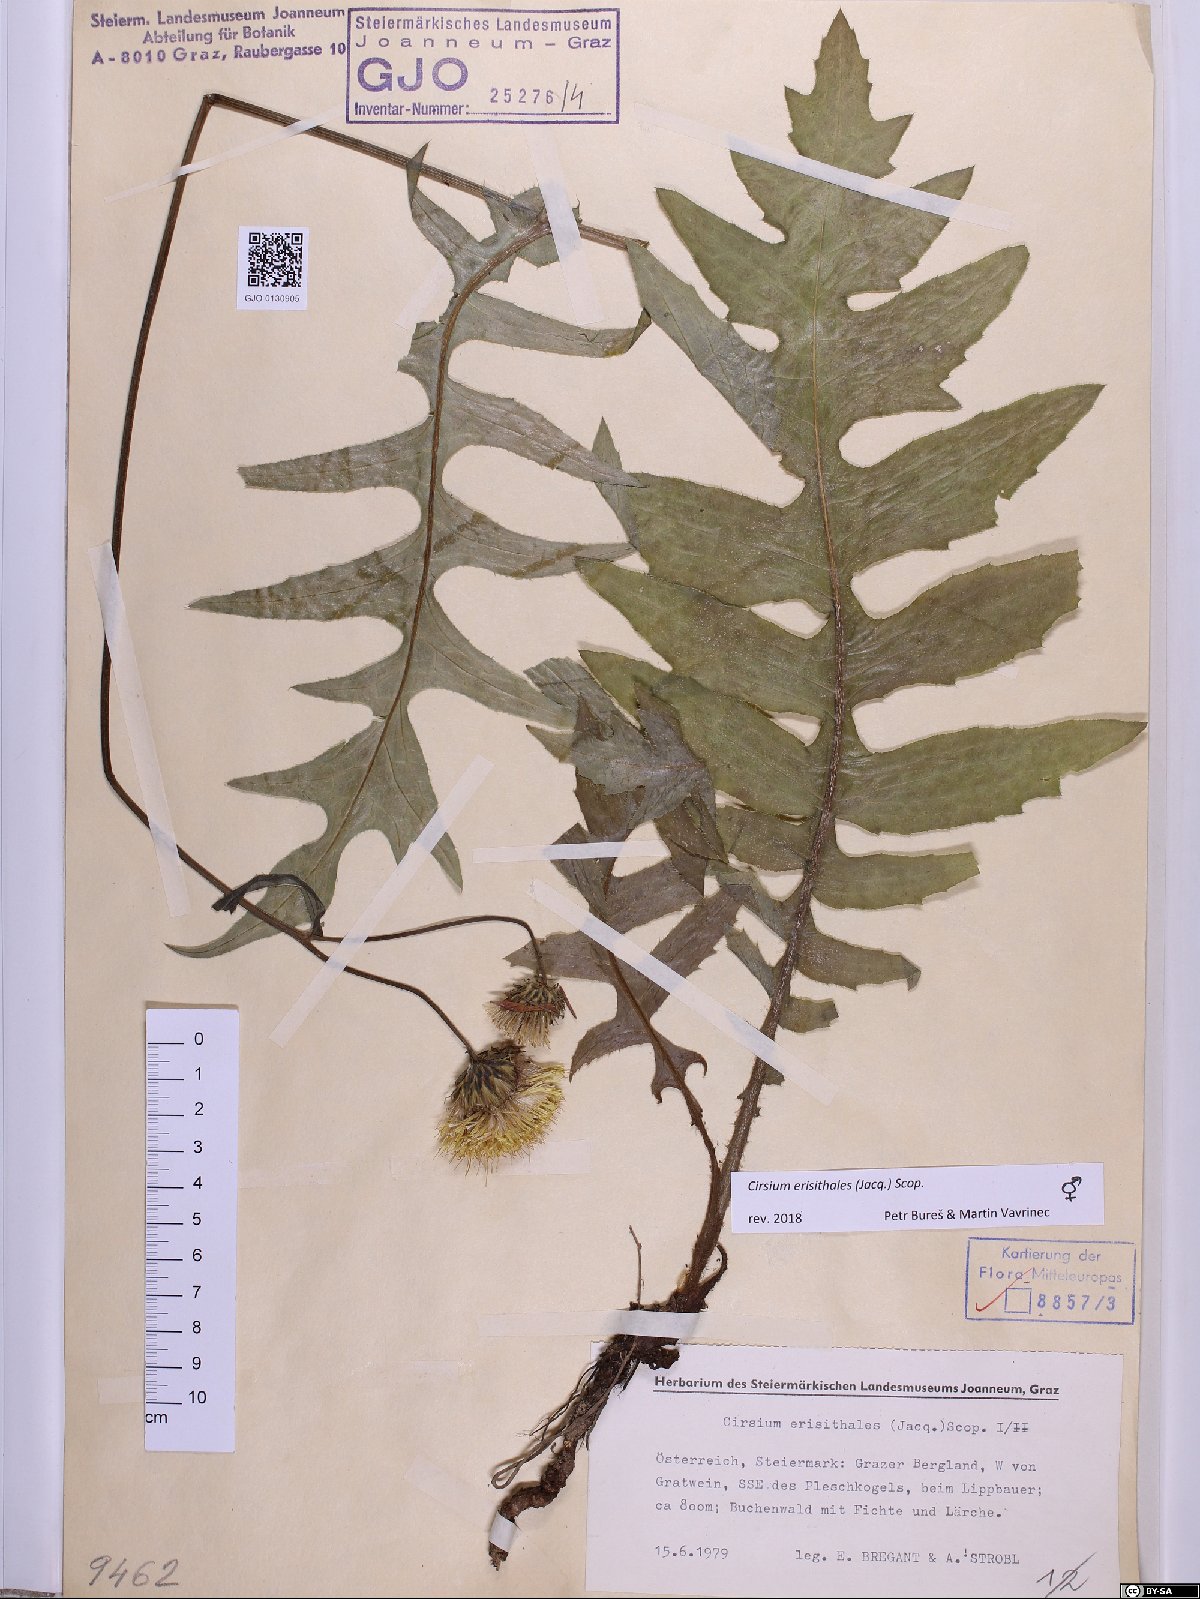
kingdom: Plantae
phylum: Tracheophyta
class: Magnoliopsida
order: Asterales
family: Asteraceae
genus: Cirsium
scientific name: Cirsium erisithales
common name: Yellow thistle
